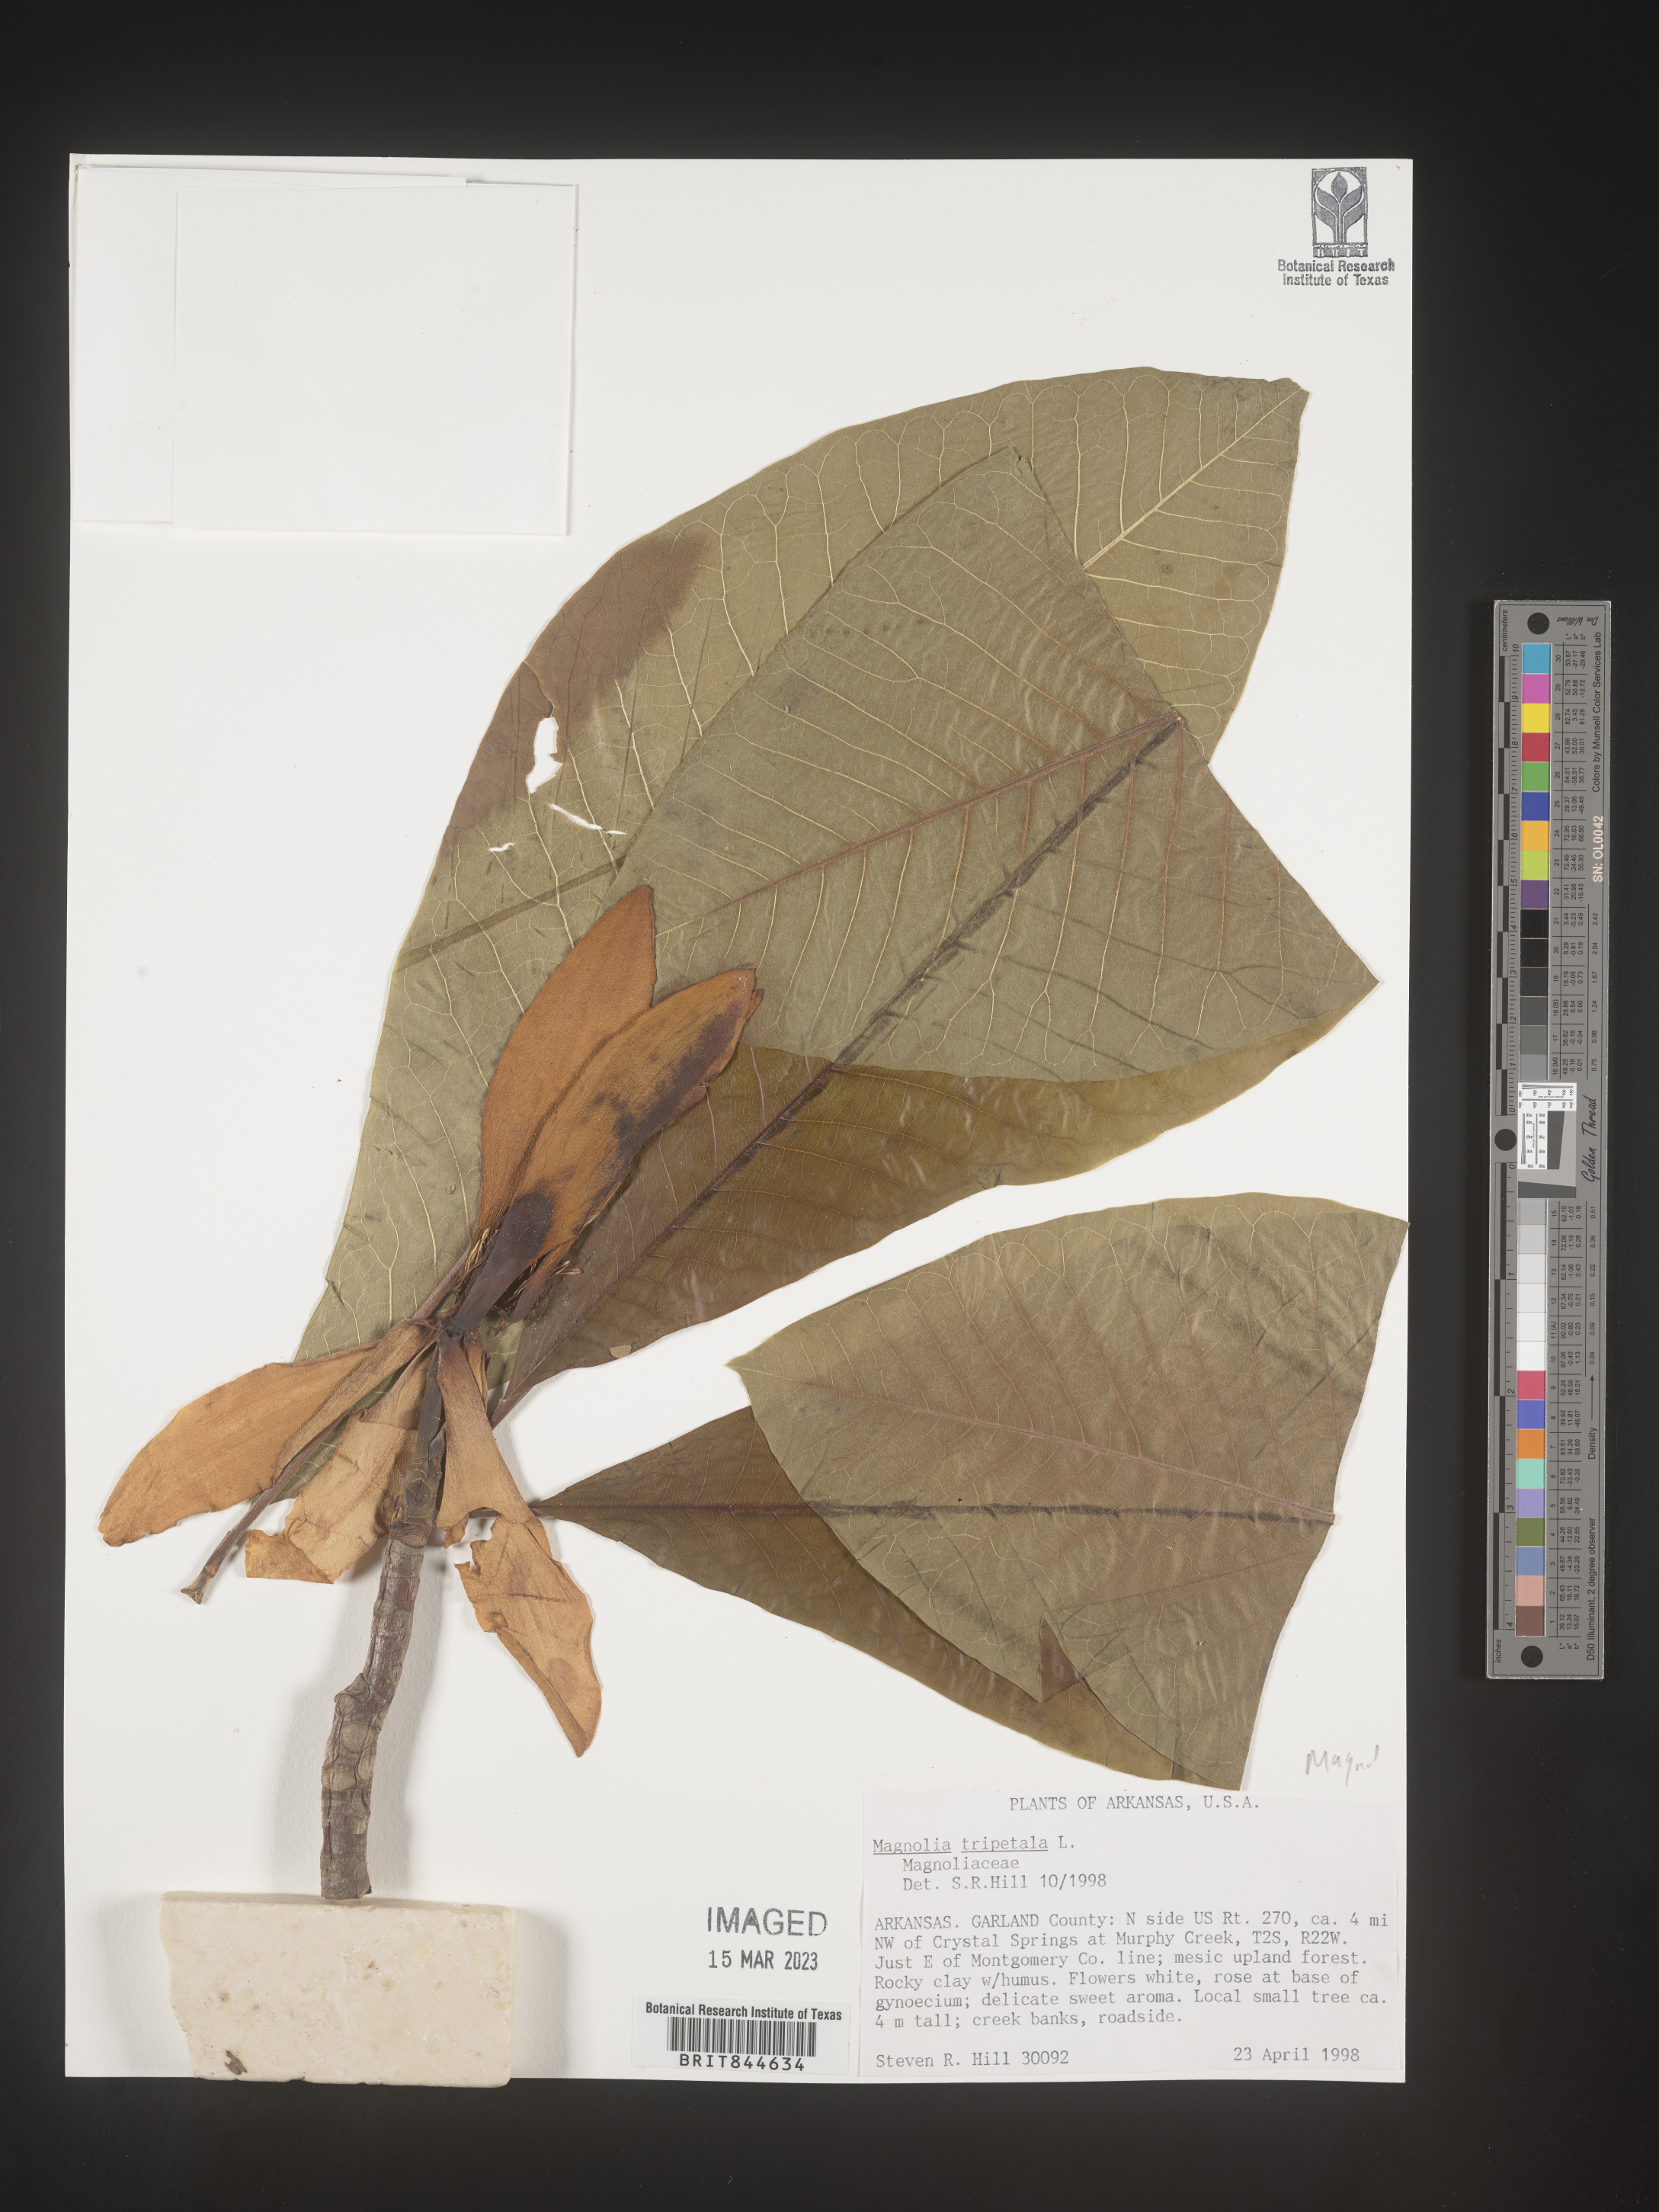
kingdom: Plantae
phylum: Tracheophyta
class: Magnoliopsida
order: Magnoliales
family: Magnoliaceae
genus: Magnolia
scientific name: Magnolia tripetala
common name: Umbrella magnolia
